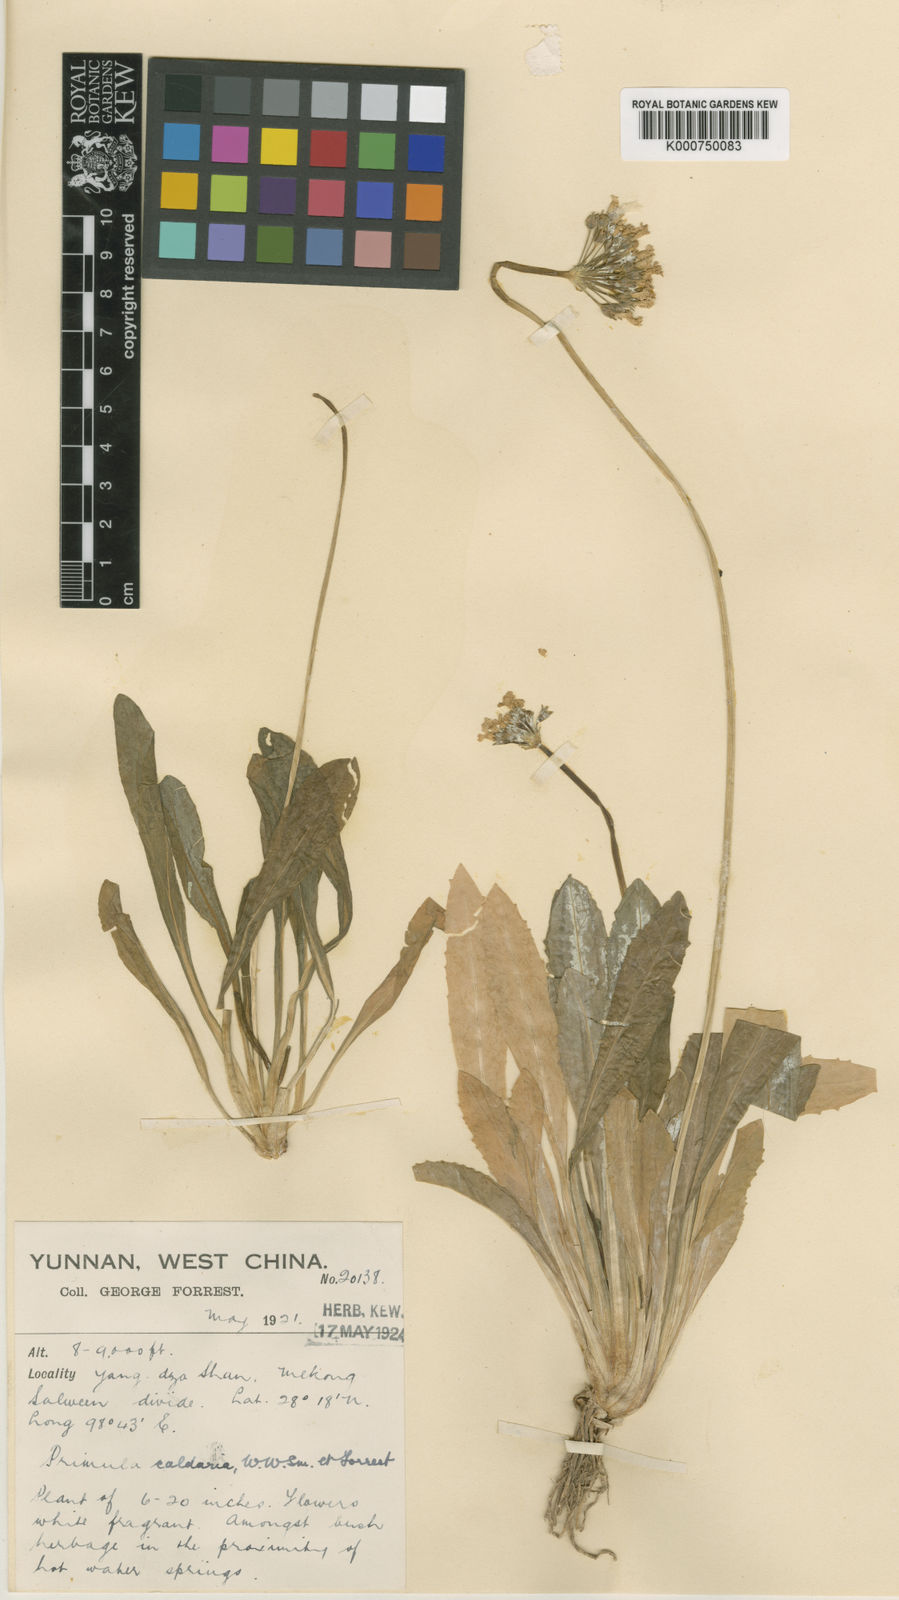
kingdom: Plantae
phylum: Tracheophyta
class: Magnoliopsida
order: Ericales
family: Primulaceae
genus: Primula
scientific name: Primula caldaria
